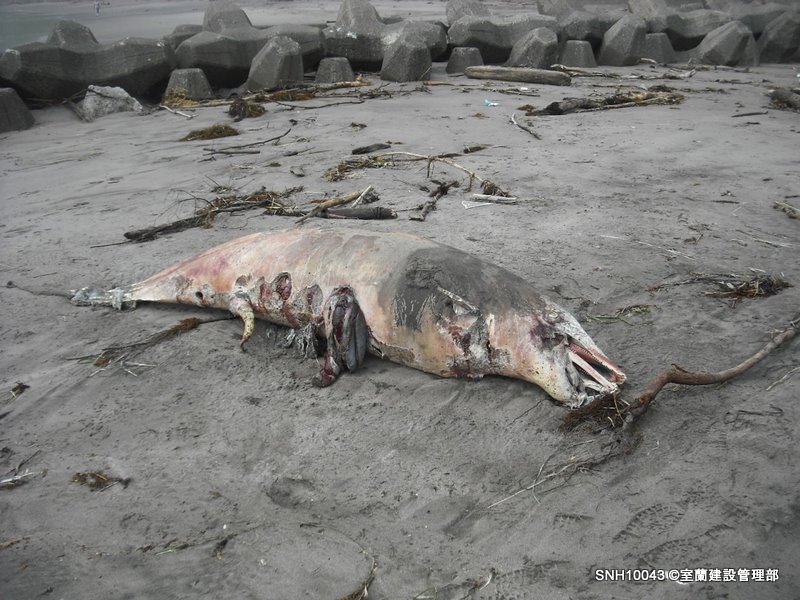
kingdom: Animalia
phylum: Chordata
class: Mammalia
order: Cetacea
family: Delphinidae
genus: Lagenorhynchus
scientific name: Lagenorhynchus obliquidens
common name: Pacific white-sided dolphin
